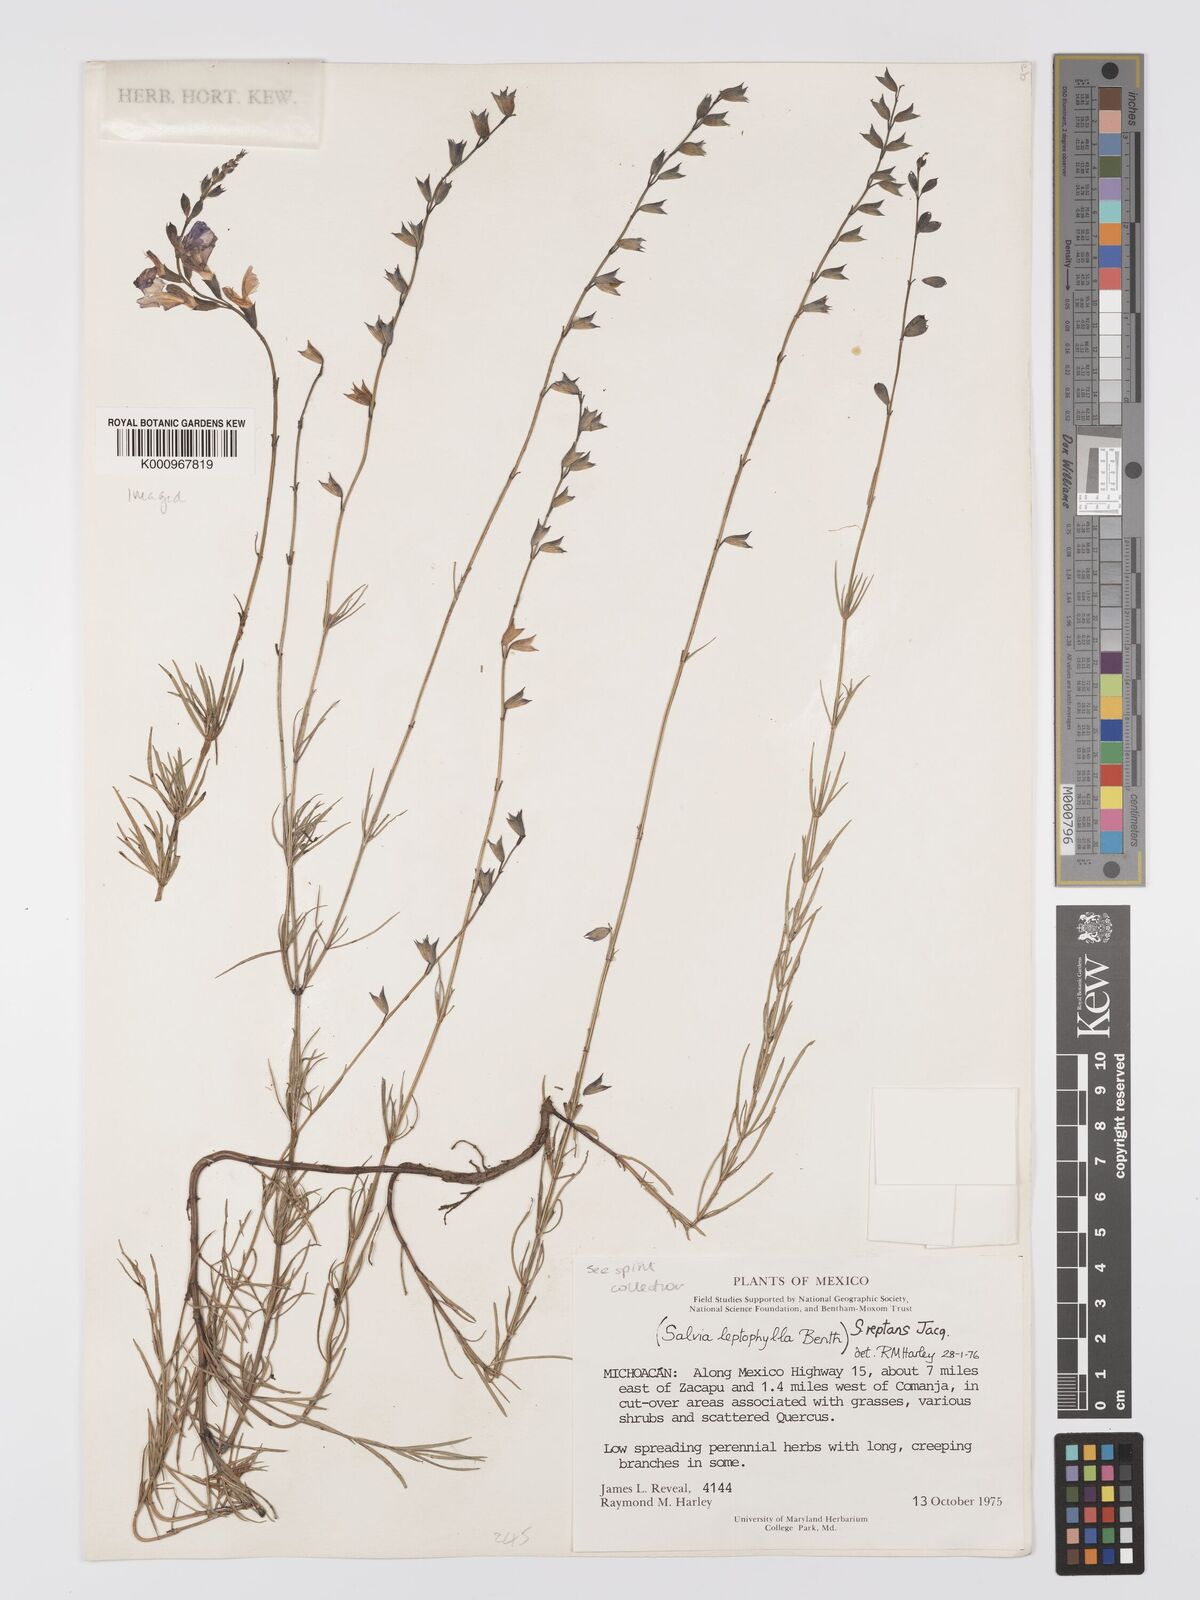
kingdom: Plantae
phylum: Tracheophyta
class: Magnoliopsida
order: Lamiales
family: Lamiaceae
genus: Salvia
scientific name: Salvia reptans
